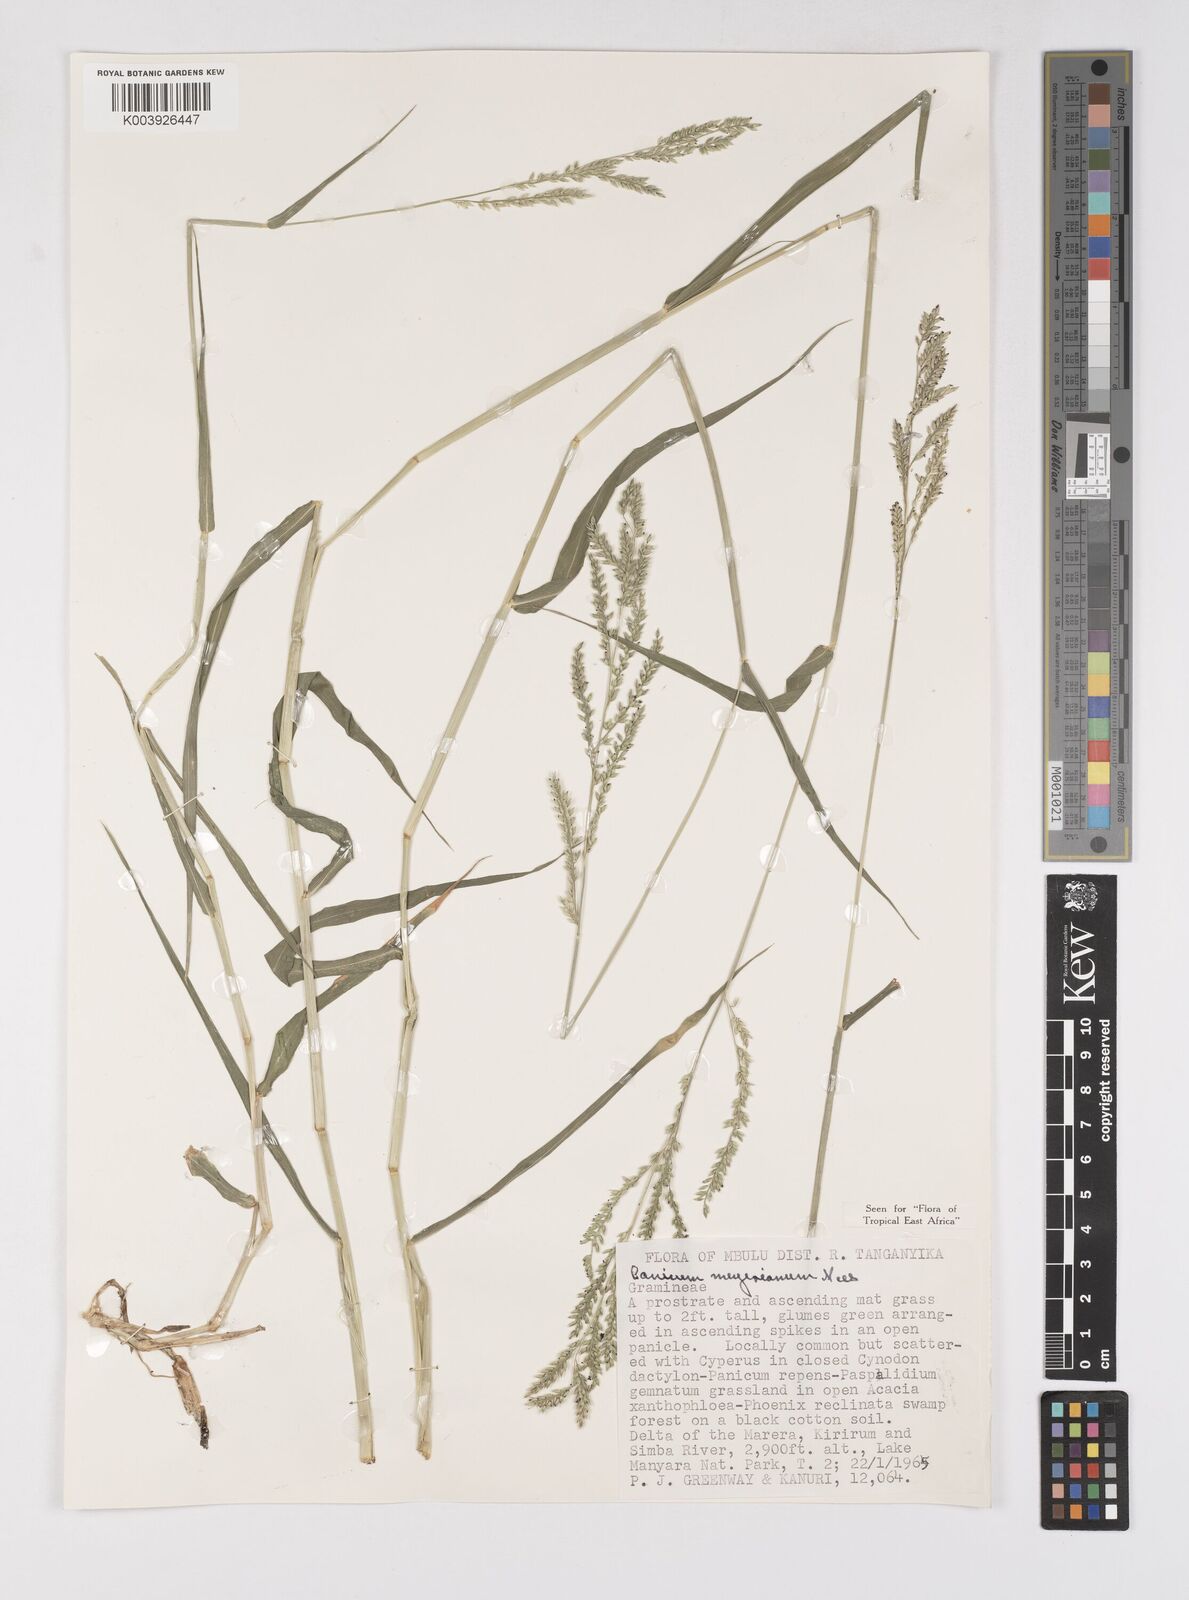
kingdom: Plantae
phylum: Tracheophyta
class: Liliopsida
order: Poales
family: Poaceae
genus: Eriochloa
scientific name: Eriochloa meyeriana
